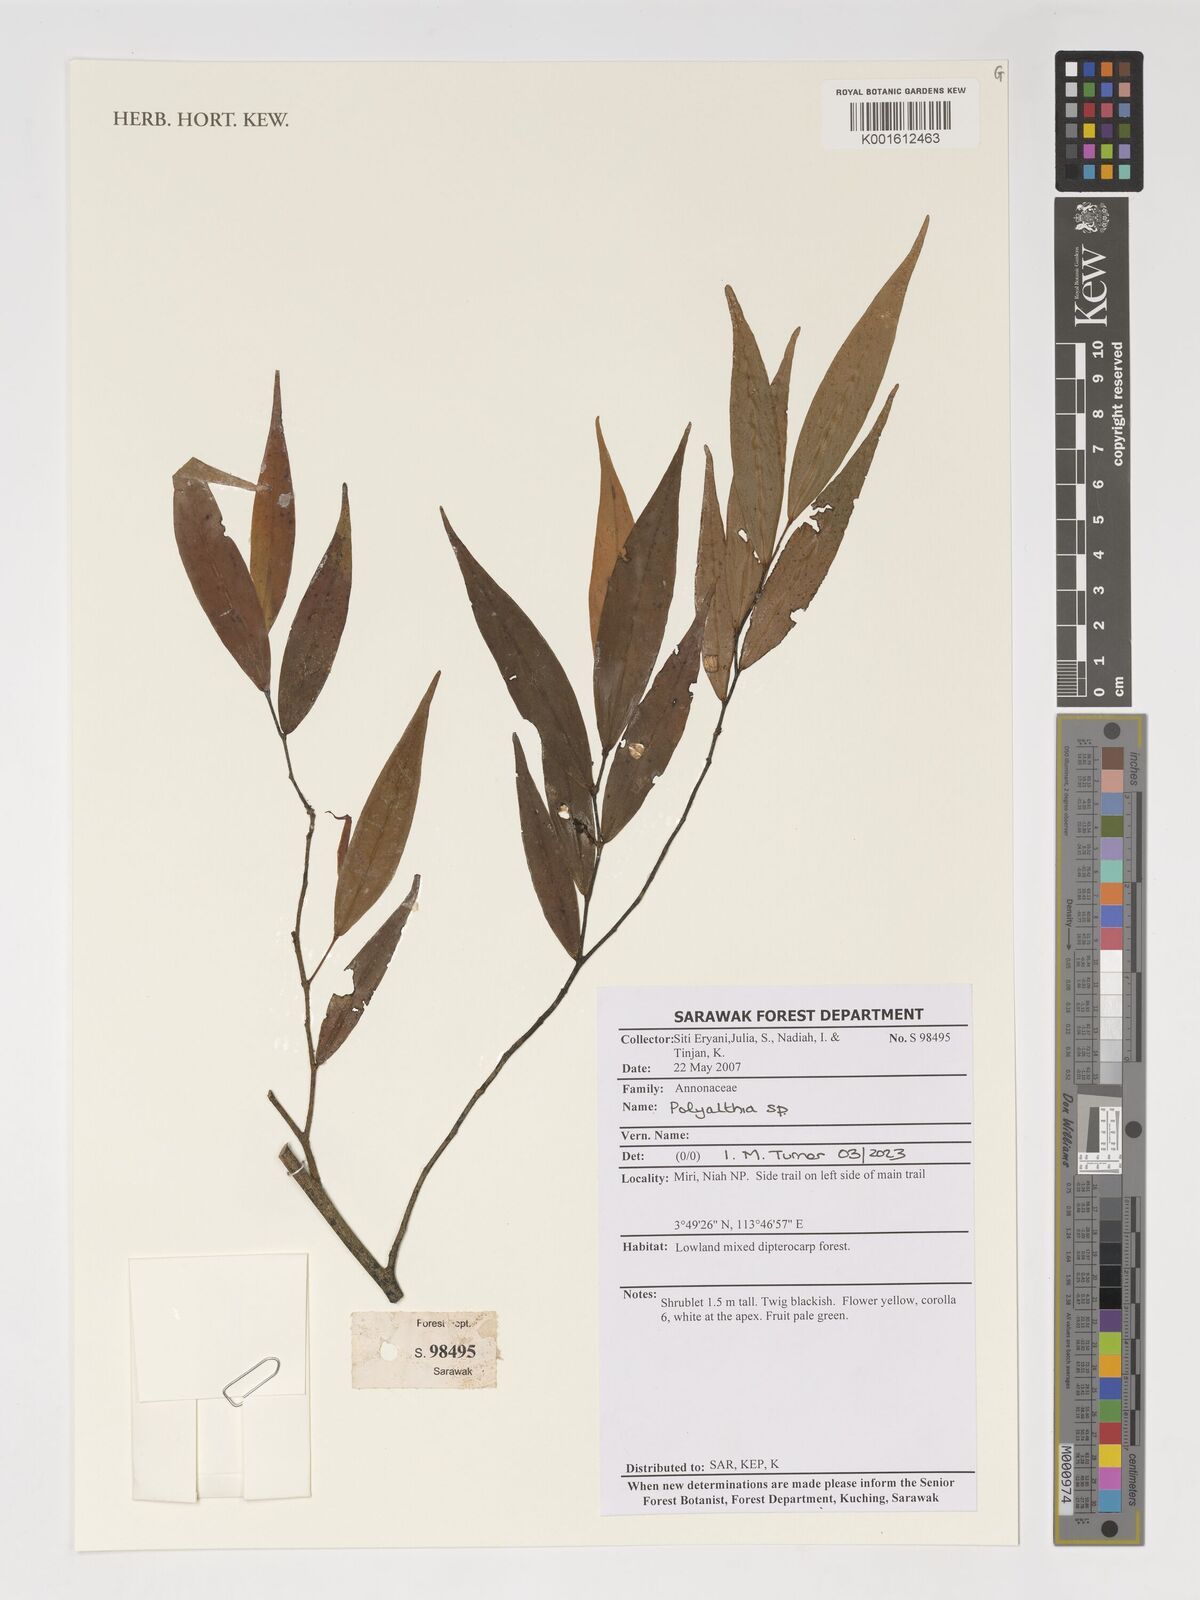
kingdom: Plantae
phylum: Tracheophyta
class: Magnoliopsida
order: Magnoliales
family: Annonaceae
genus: Polyalthia
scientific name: Polyalthia
